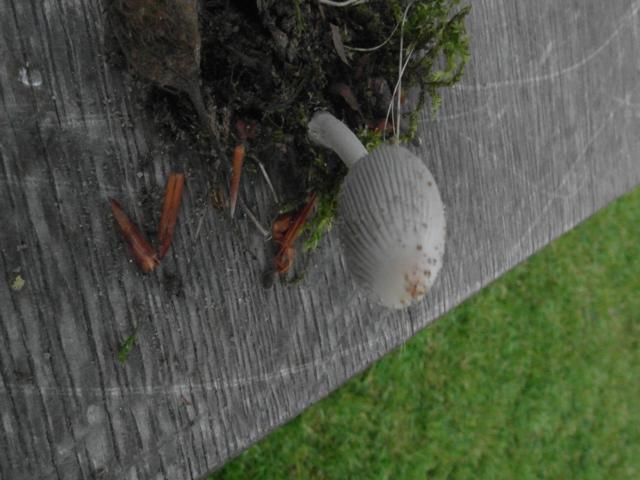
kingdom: Fungi
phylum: Basidiomycota
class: Agaricomycetes
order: Agaricales
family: Psathyrellaceae
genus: Coprinellus
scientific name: Coprinellus domesticus
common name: hus-blækhat
